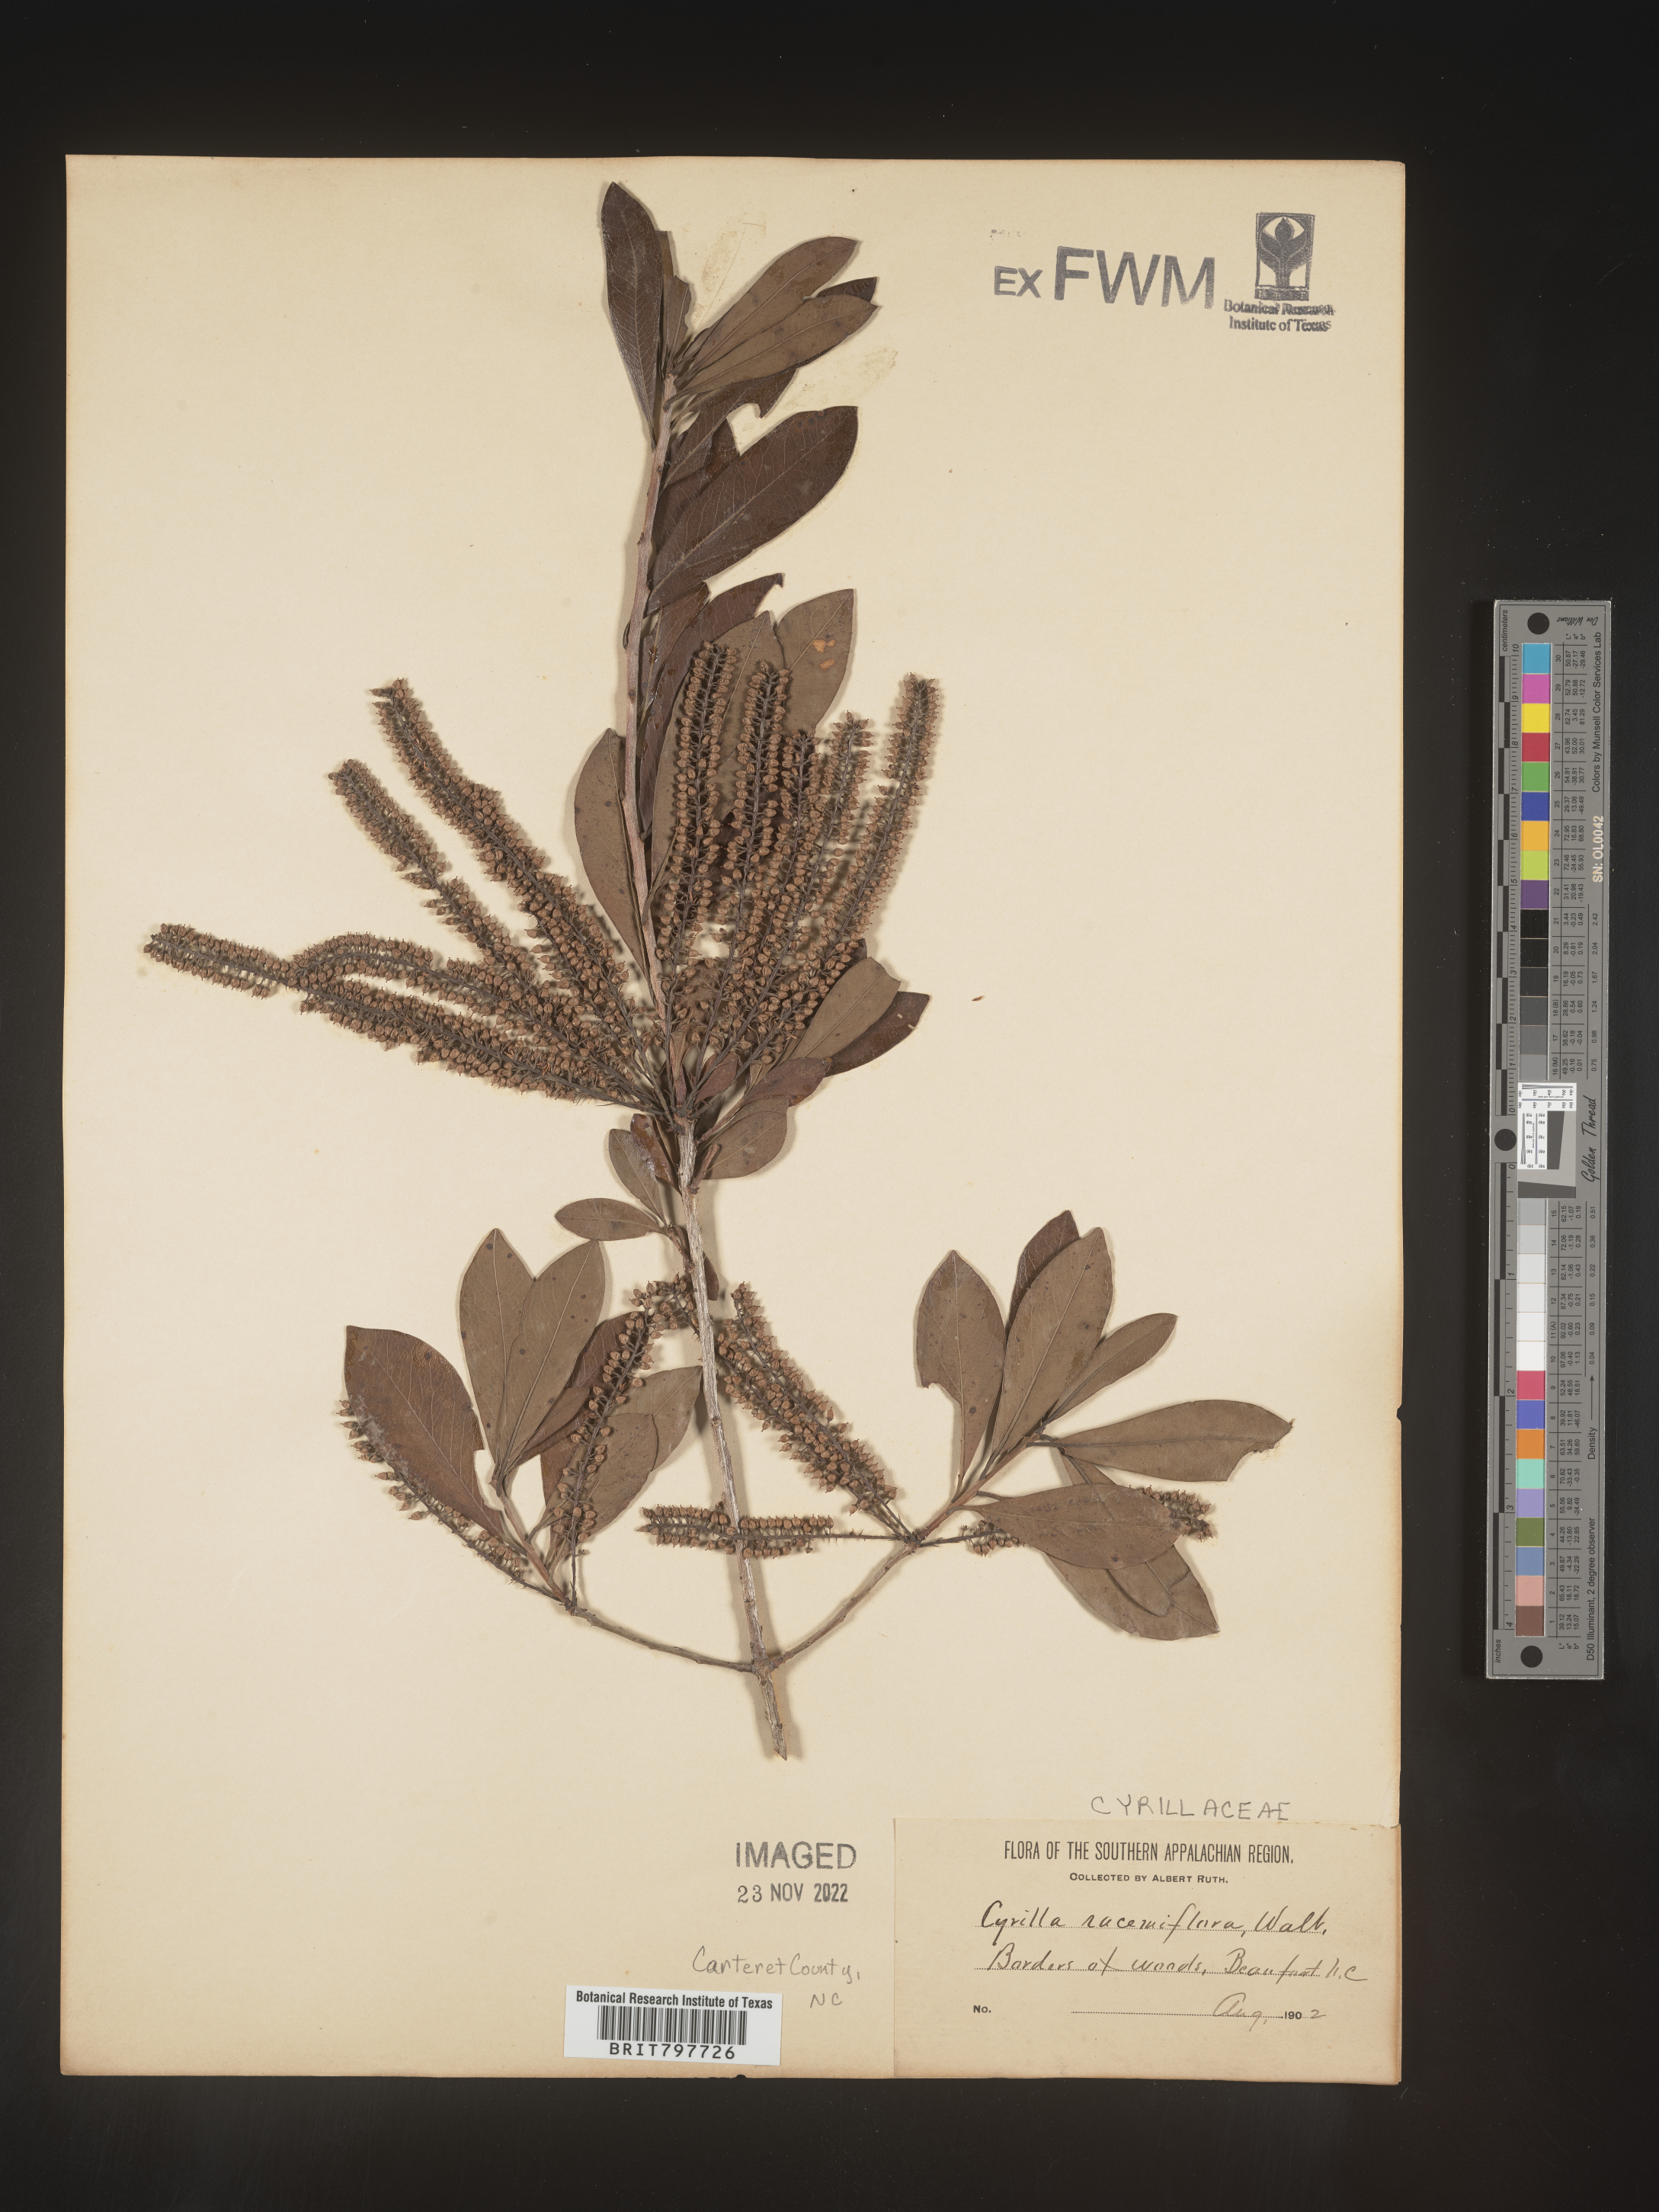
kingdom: Plantae
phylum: Tracheophyta
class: Magnoliopsida
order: Ericales
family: Cyrillaceae
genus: Cyrilla
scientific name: Cyrilla racemiflora
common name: Black titi
